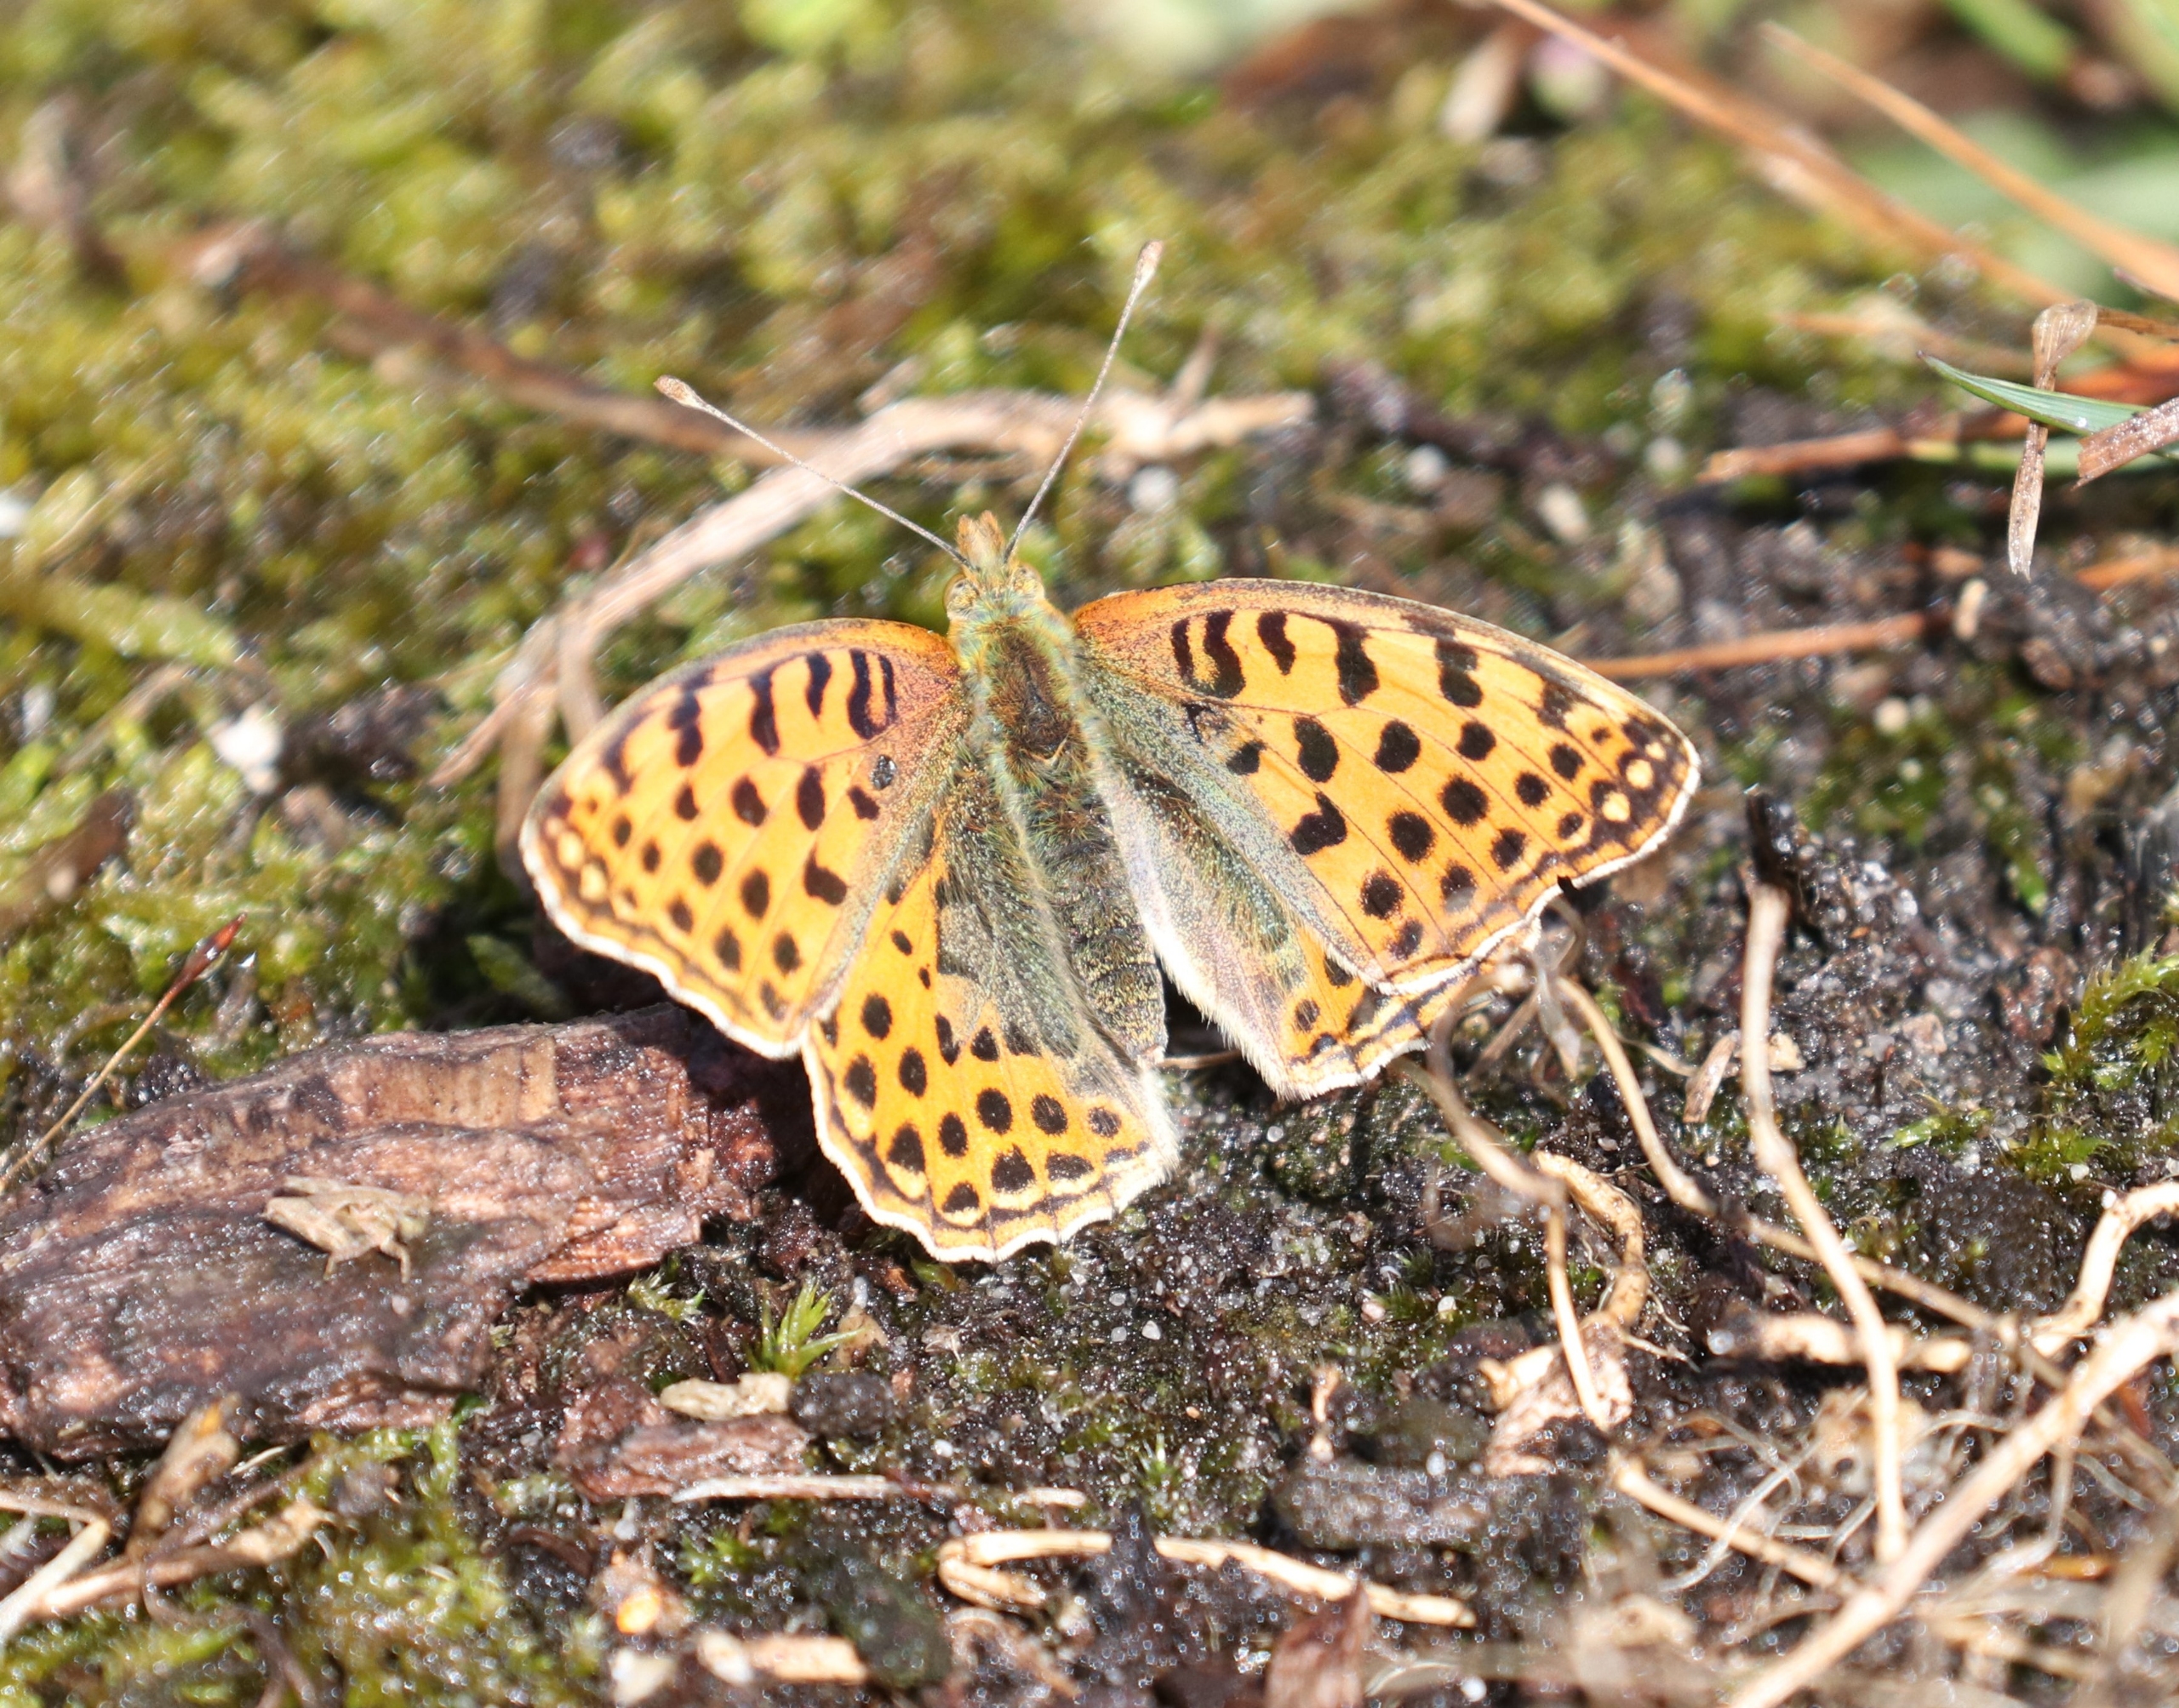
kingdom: Animalia
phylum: Arthropoda
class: Insecta
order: Lepidoptera
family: Nymphalidae
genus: Issoria
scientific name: Issoria lathonia
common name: Storplettet perlemorsommerfugl
